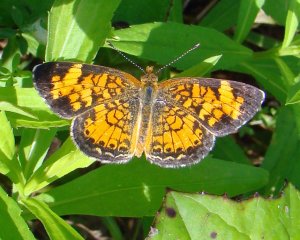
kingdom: Animalia
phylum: Arthropoda
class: Insecta
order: Lepidoptera
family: Nymphalidae
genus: Phyciodes
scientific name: Phyciodes tharos
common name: Pearl Crescent
